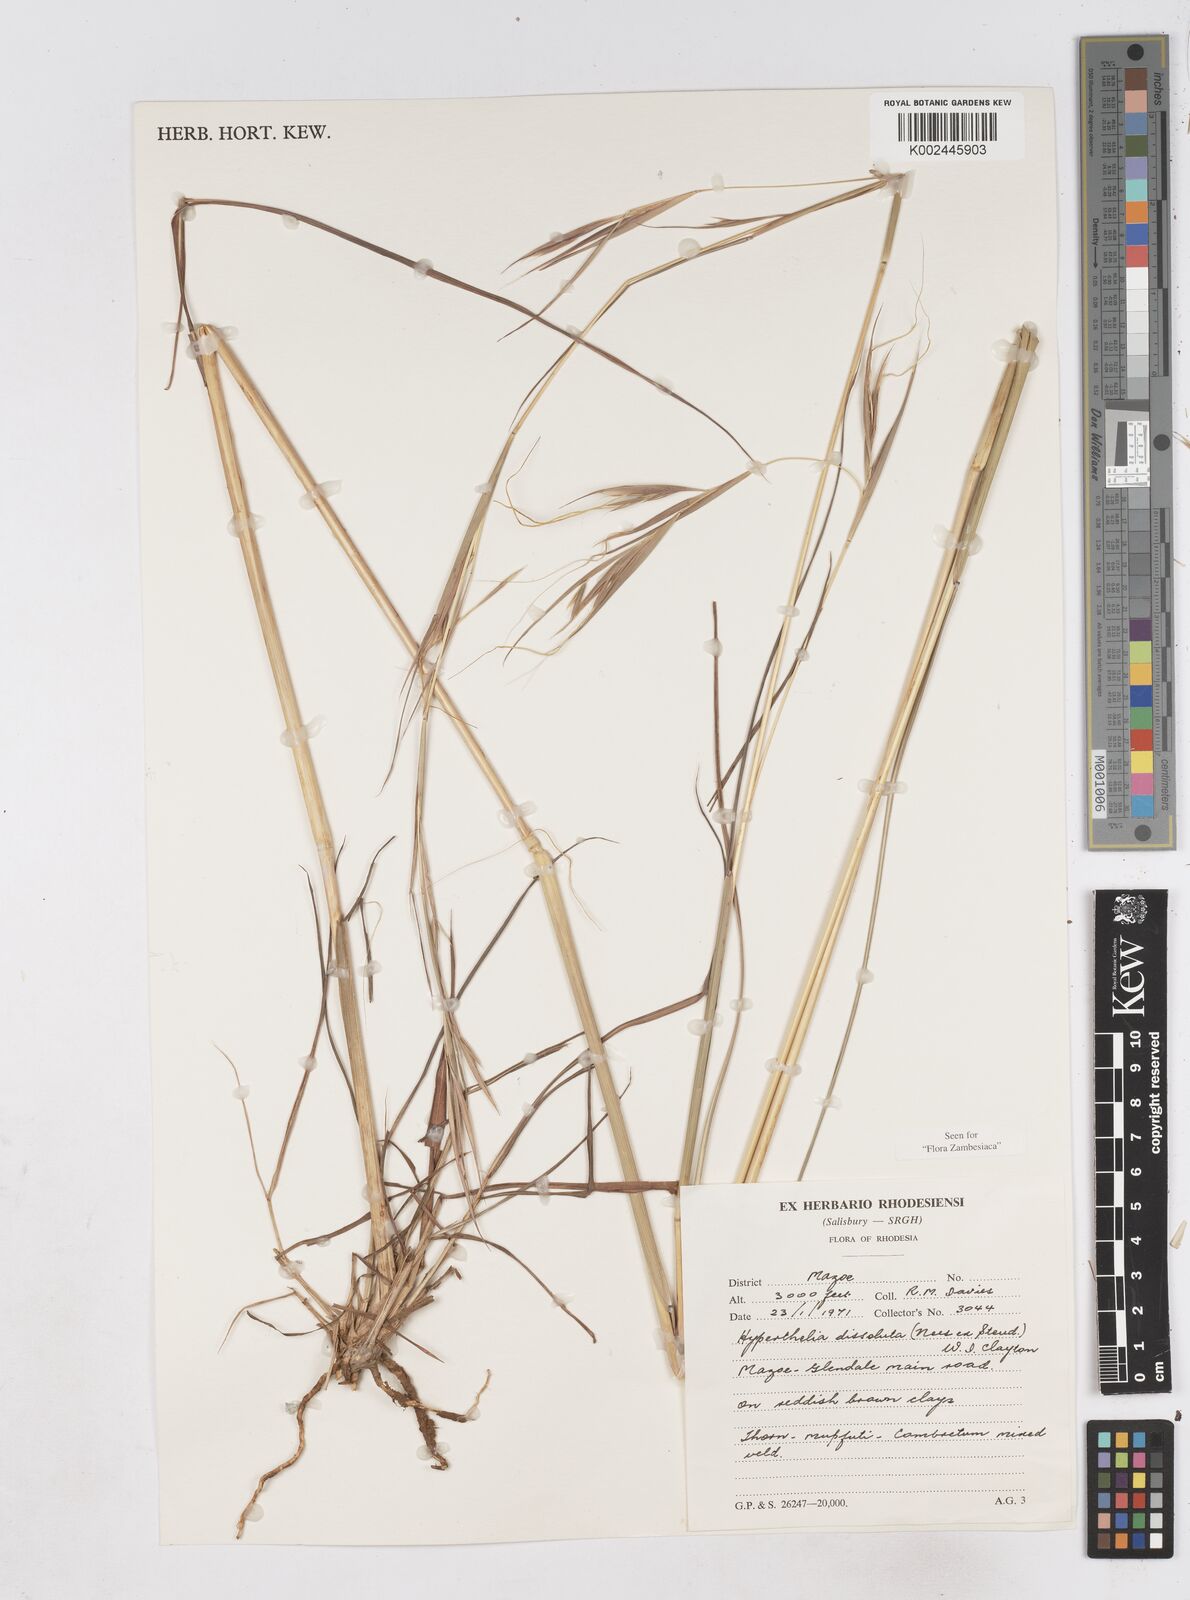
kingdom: Plantae
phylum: Tracheophyta
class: Liliopsida
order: Poales
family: Poaceae
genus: Hyperthelia
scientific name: Hyperthelia dissoluta
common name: Yellow thatching grass
